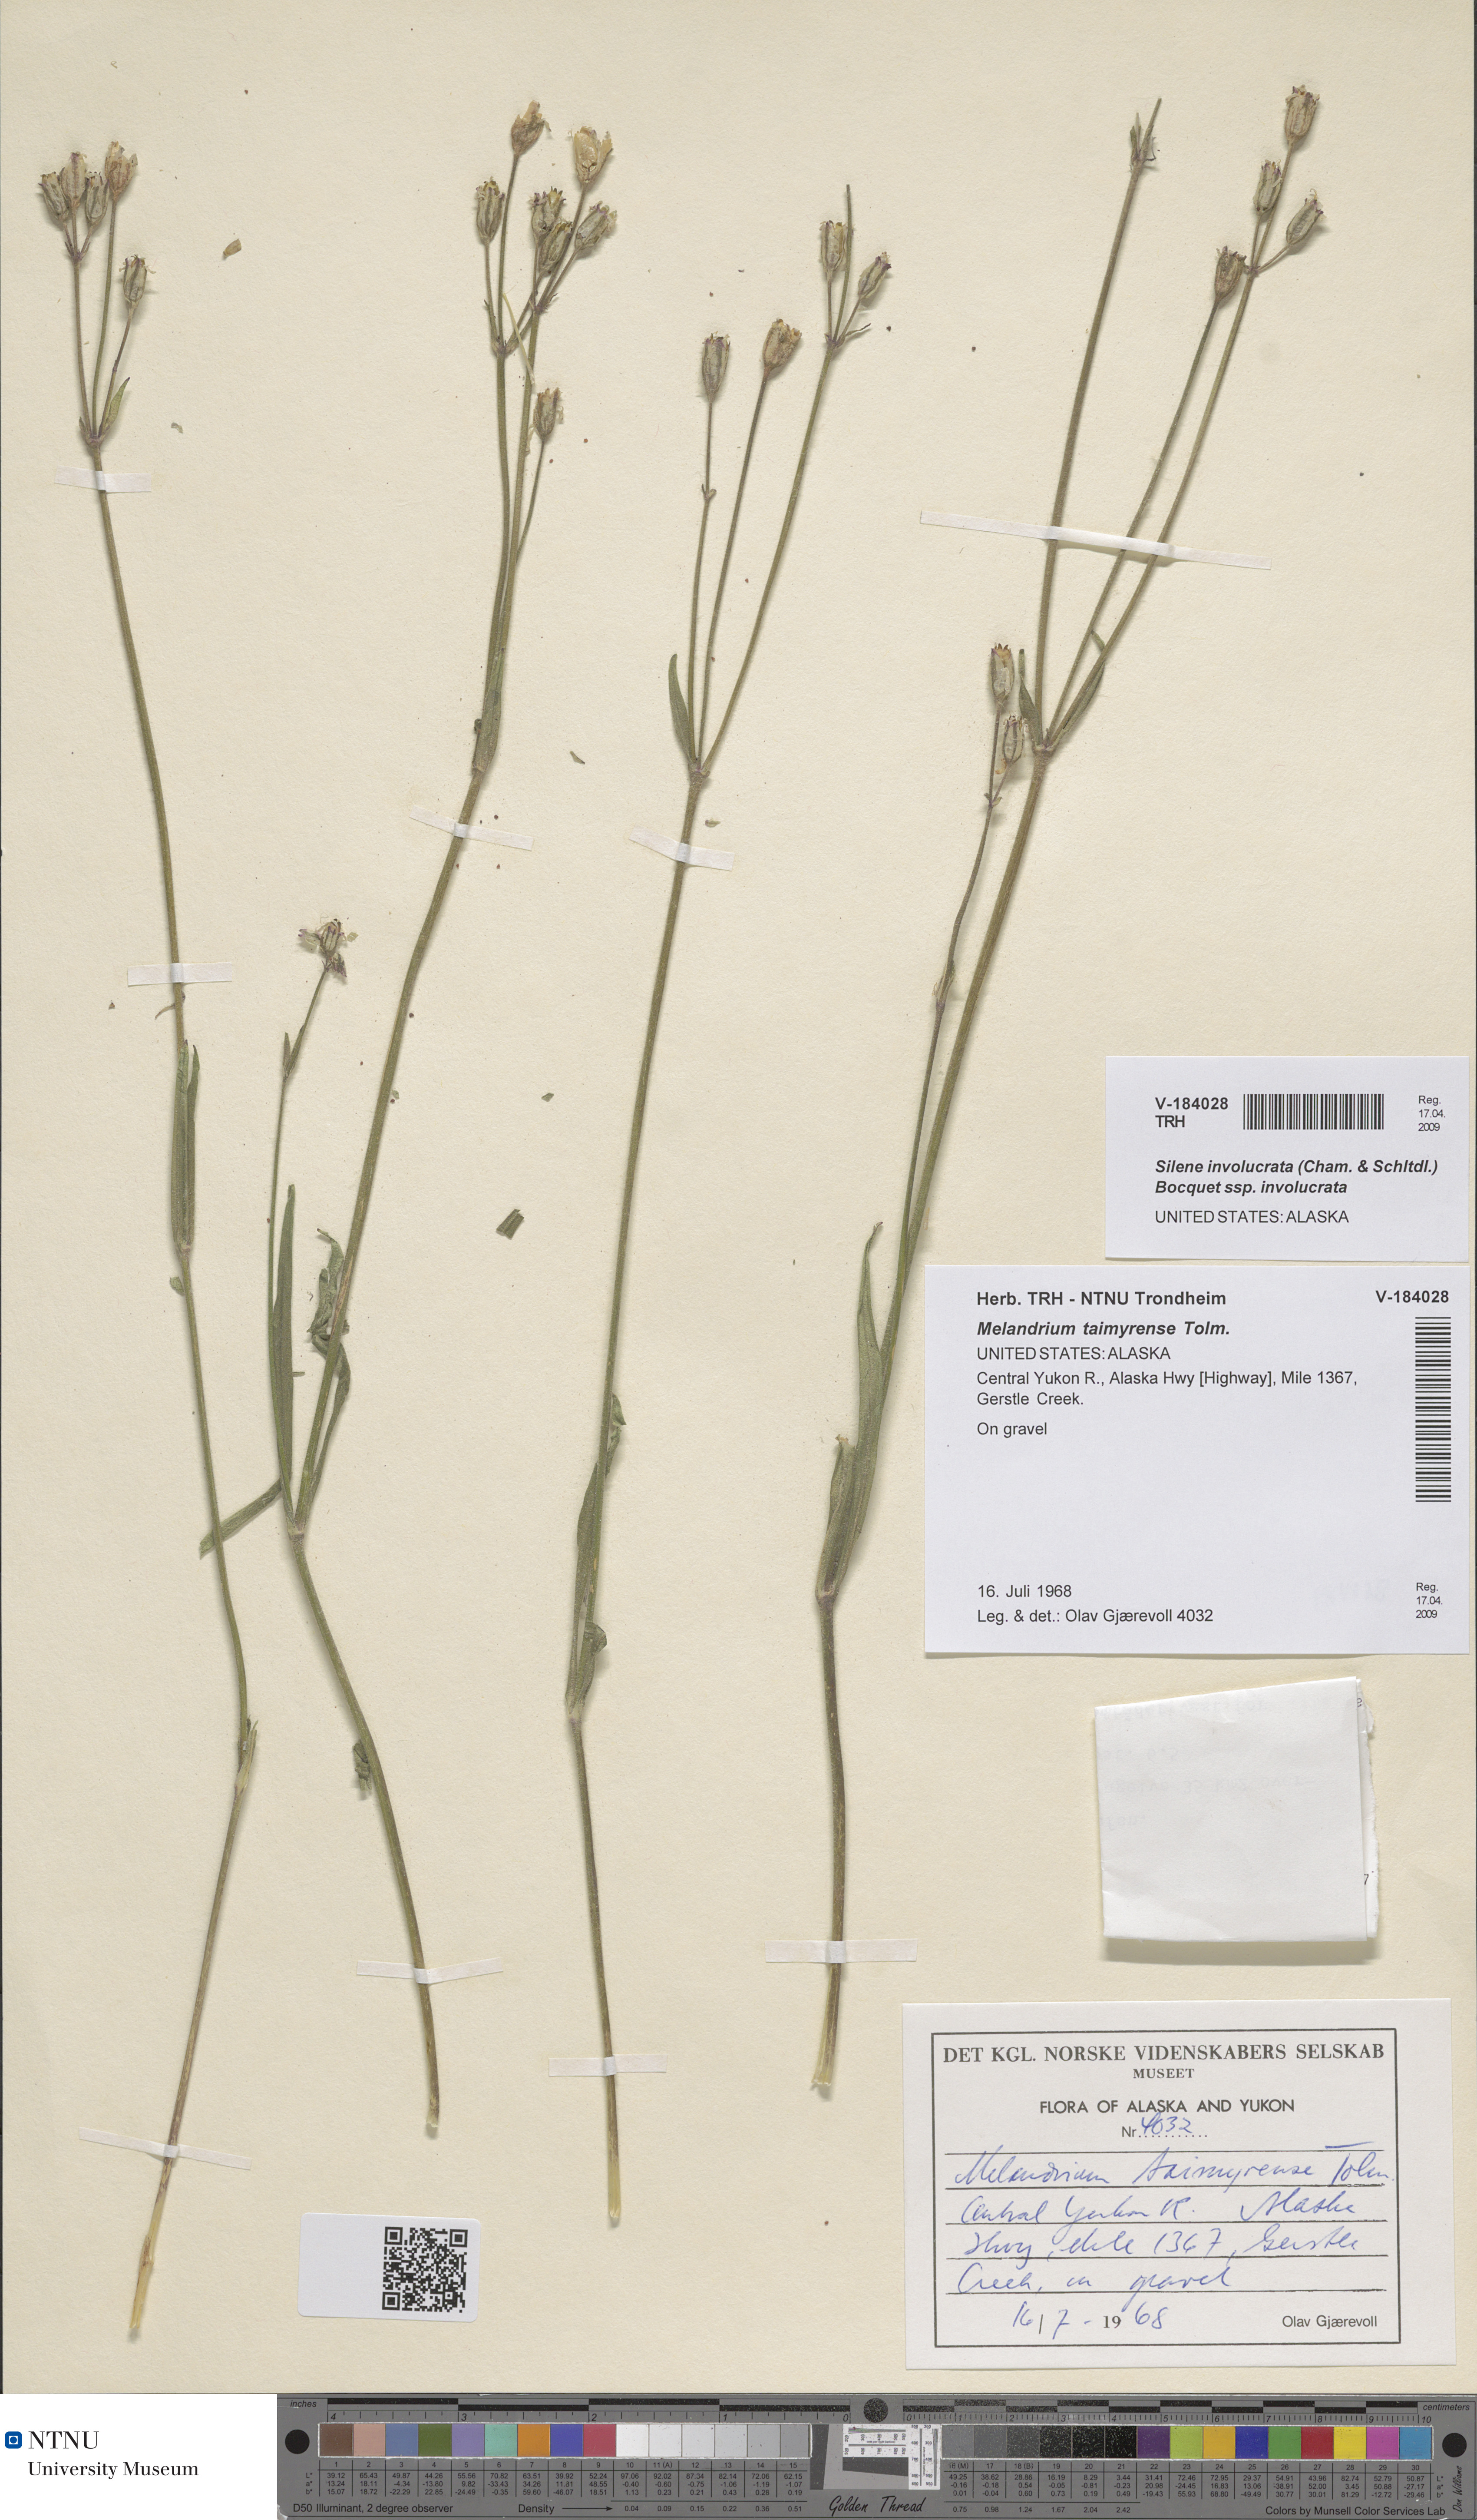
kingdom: Plantae
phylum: Tracheophyta
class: Magnoliopsida
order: Caryophyllales
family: Caryophyllaceae
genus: Silene
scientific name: Silene involucrata
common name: Greater arctic campion
